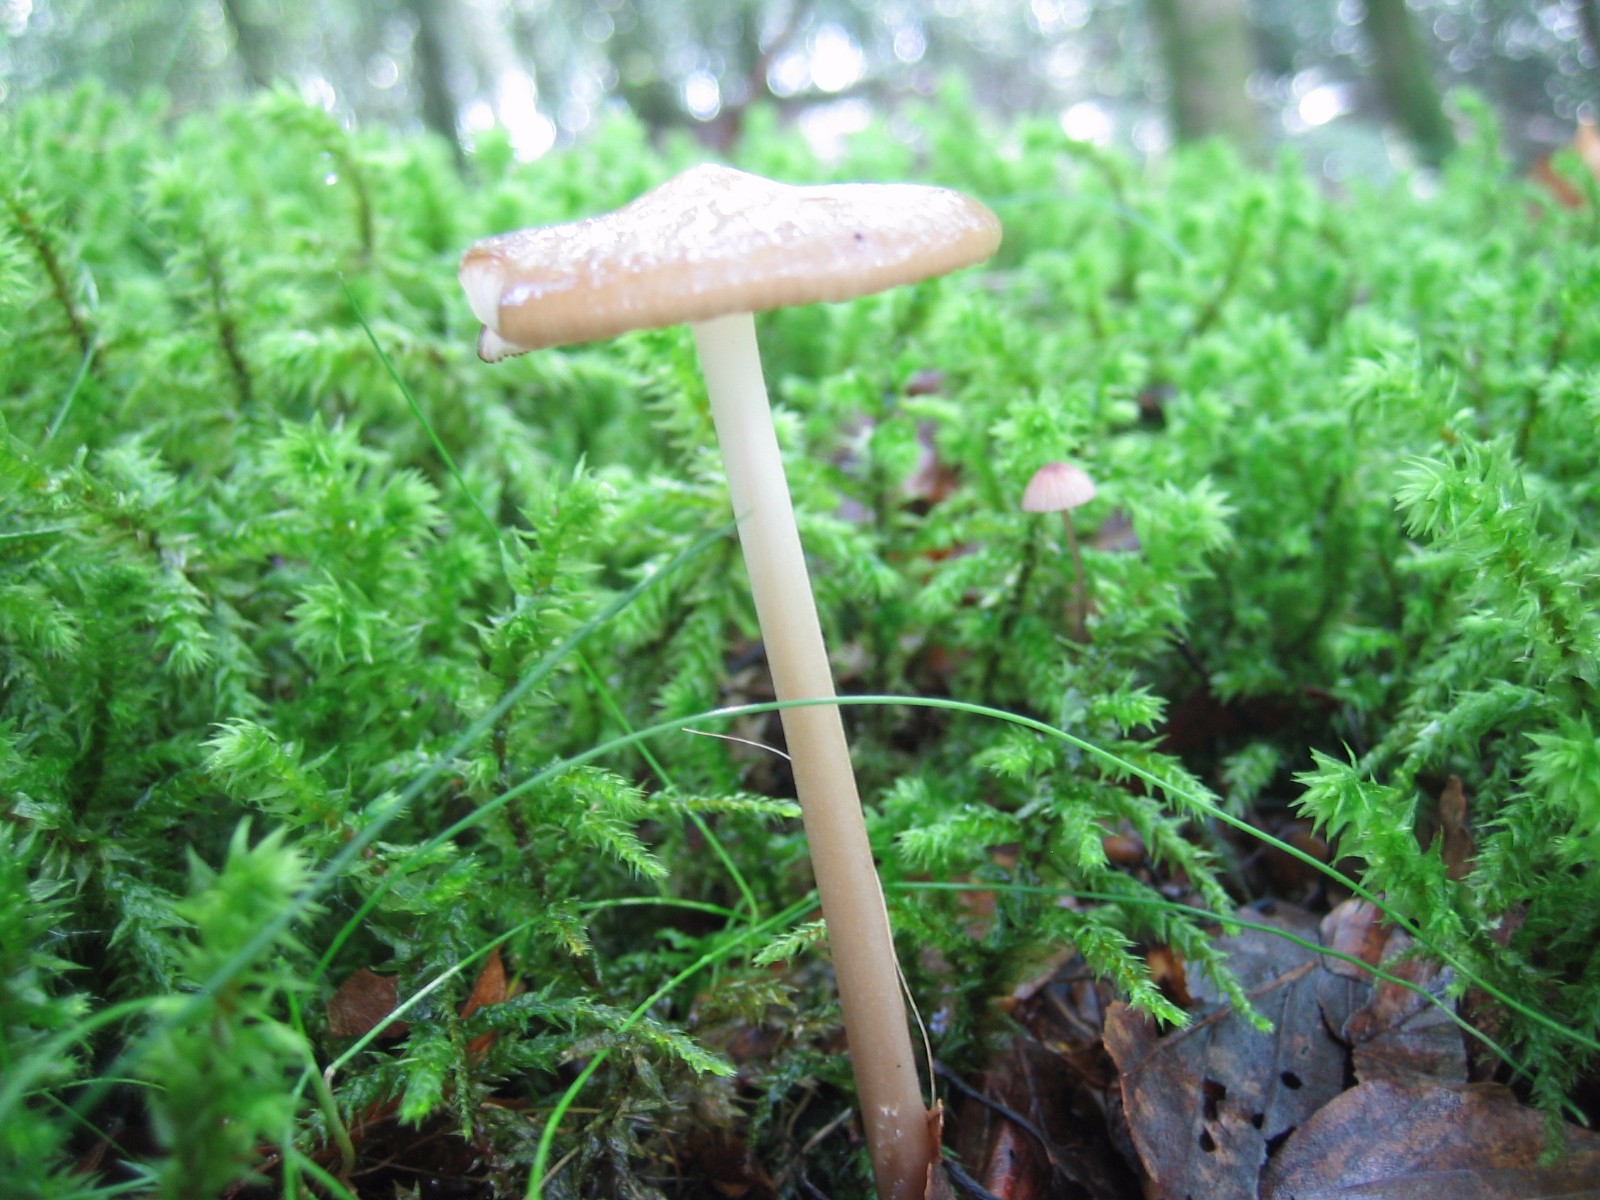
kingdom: Fungi
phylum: Basidiomycota
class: Agaricomycetes
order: Agaricales
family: Physalacriaceae
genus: Hymenopellis
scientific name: Hymenopellis radicata
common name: almindelig pælerodshat
